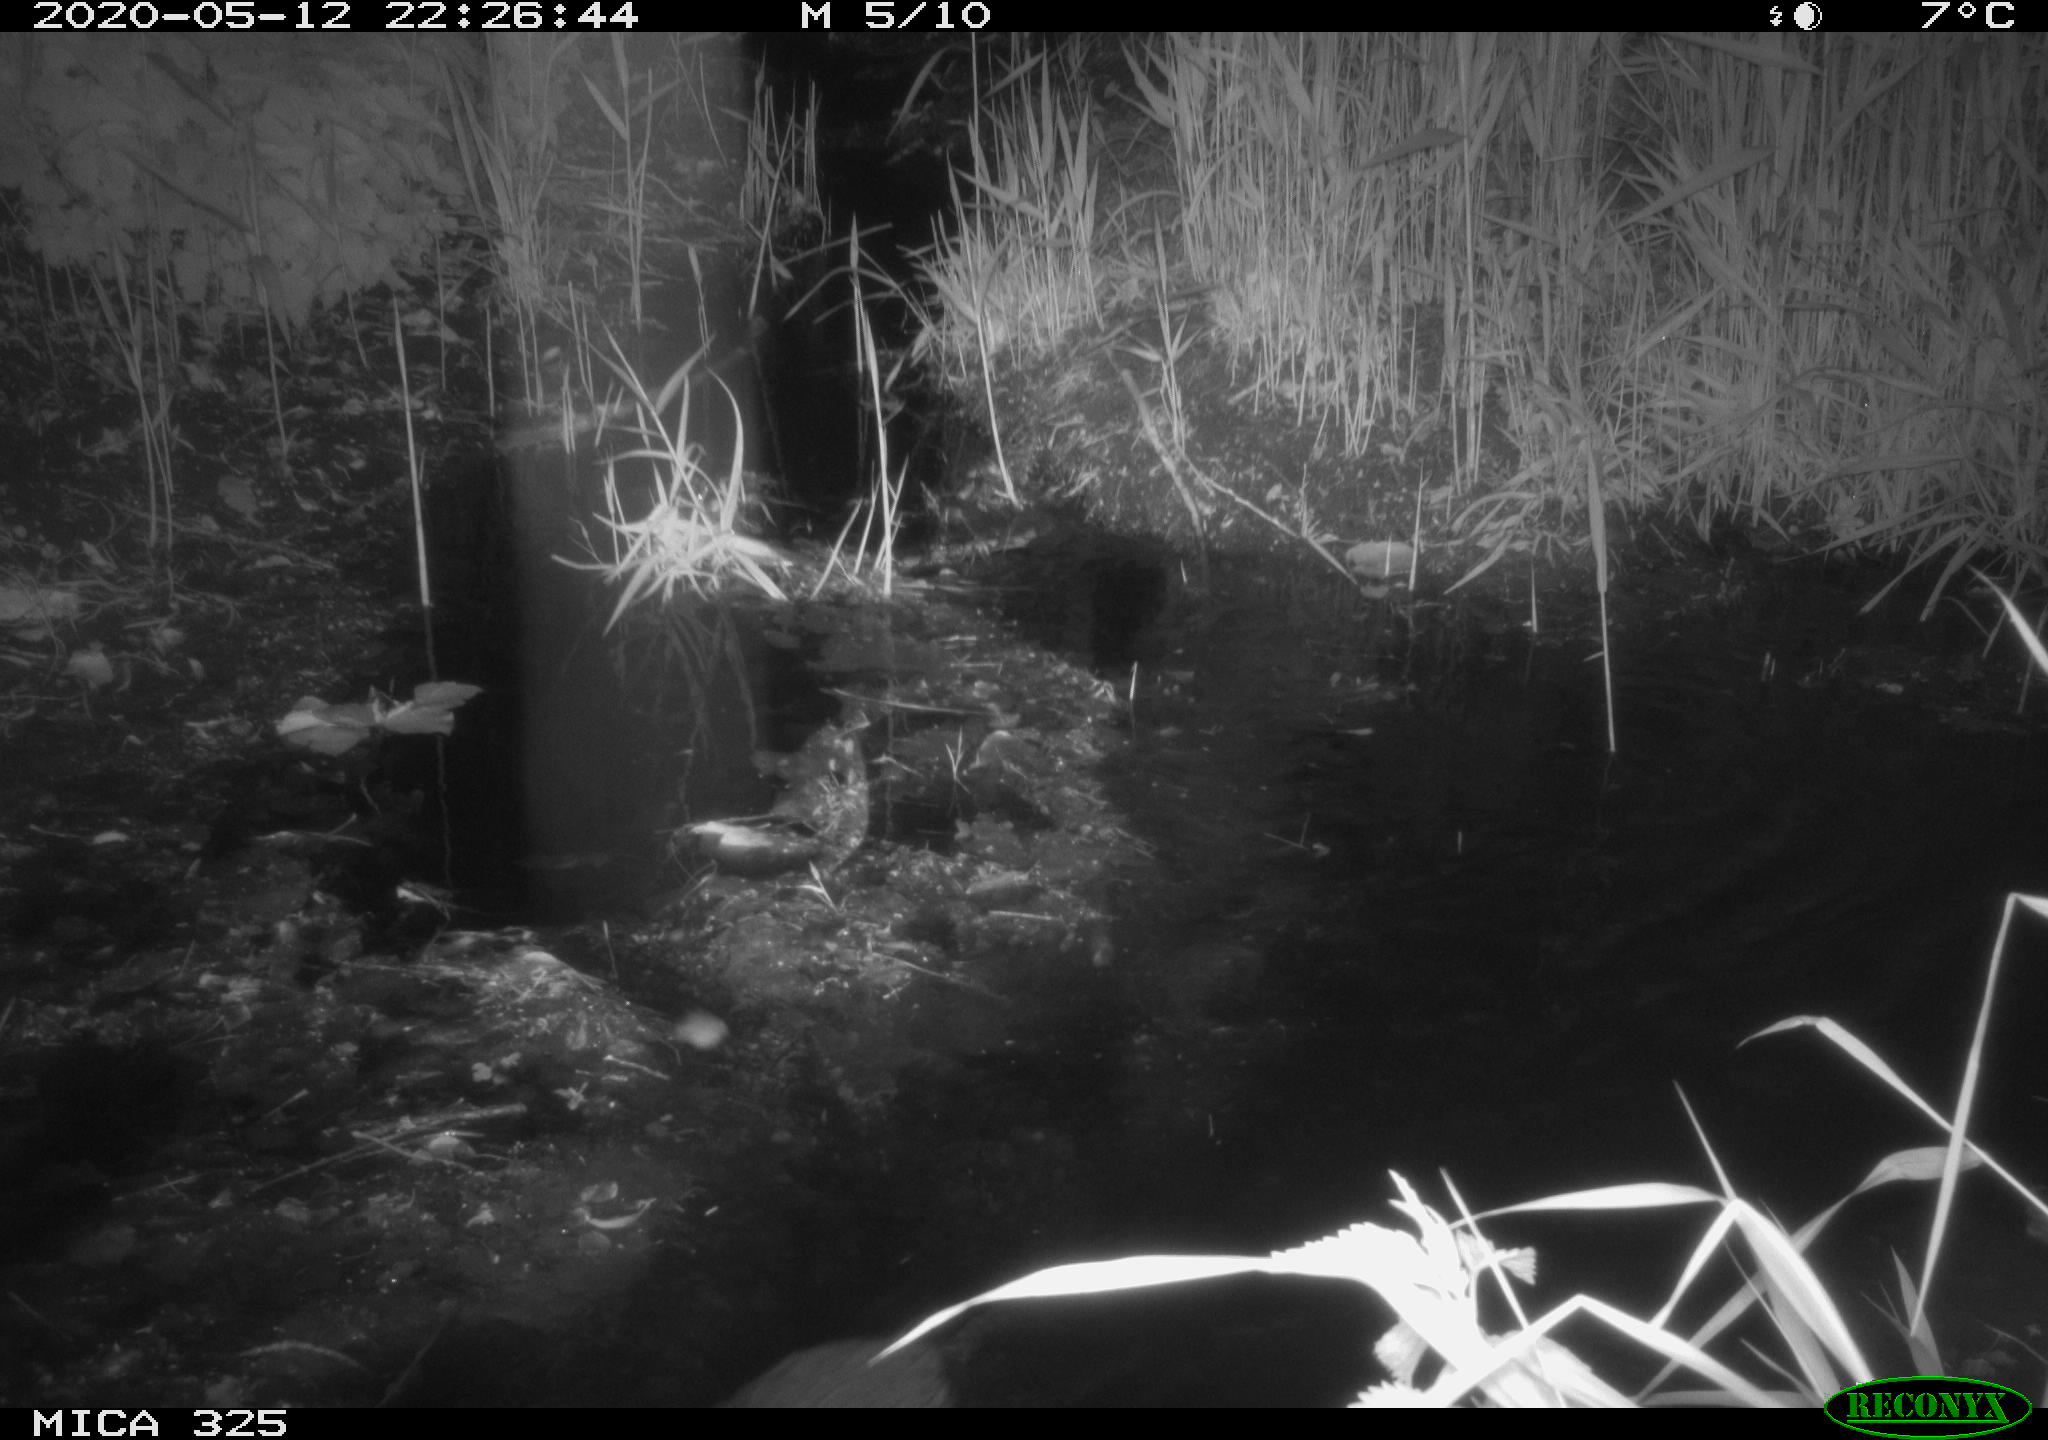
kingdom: Animalia
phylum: Chordata
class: Mammalia
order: Rodentia
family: Myocastoridae
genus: Myocastor
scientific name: Myocastor coypus
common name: Coypu
